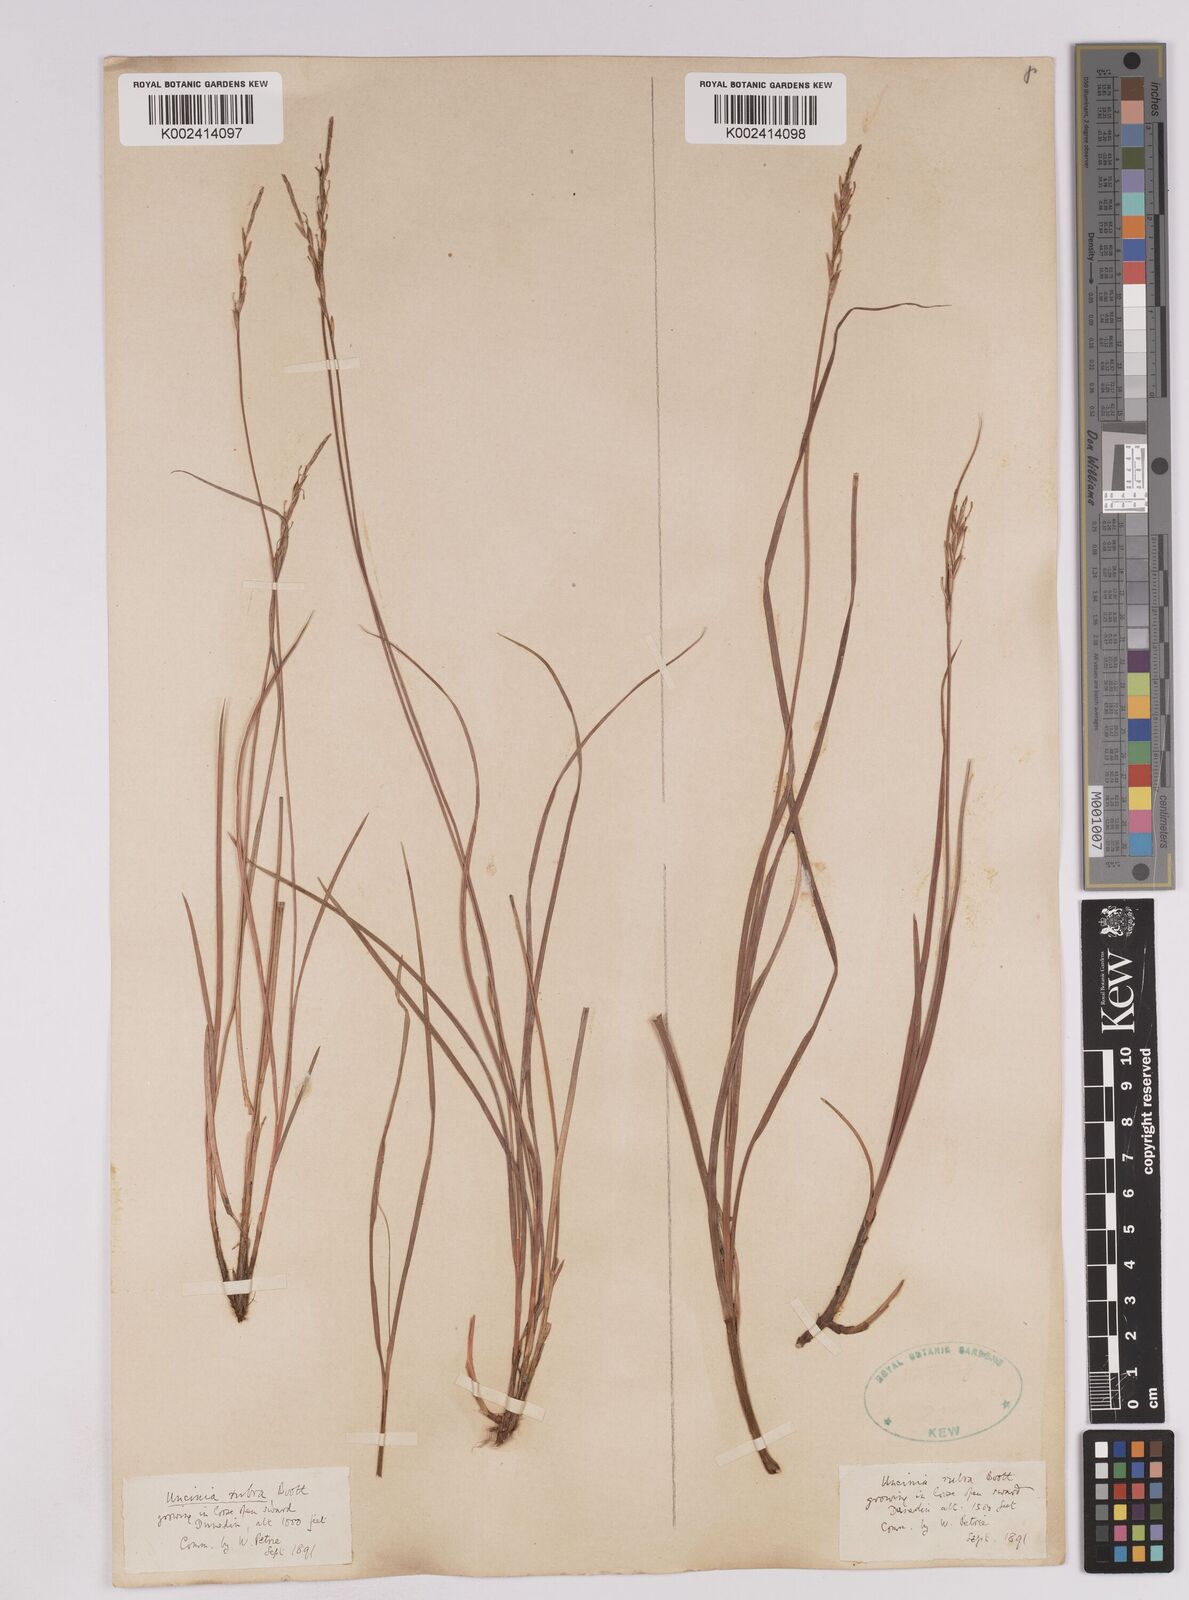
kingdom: Plantae
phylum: Tracheophyta
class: Liliopsida
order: Poales
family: Cyperaceae
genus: Carex
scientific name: Carex punicea
